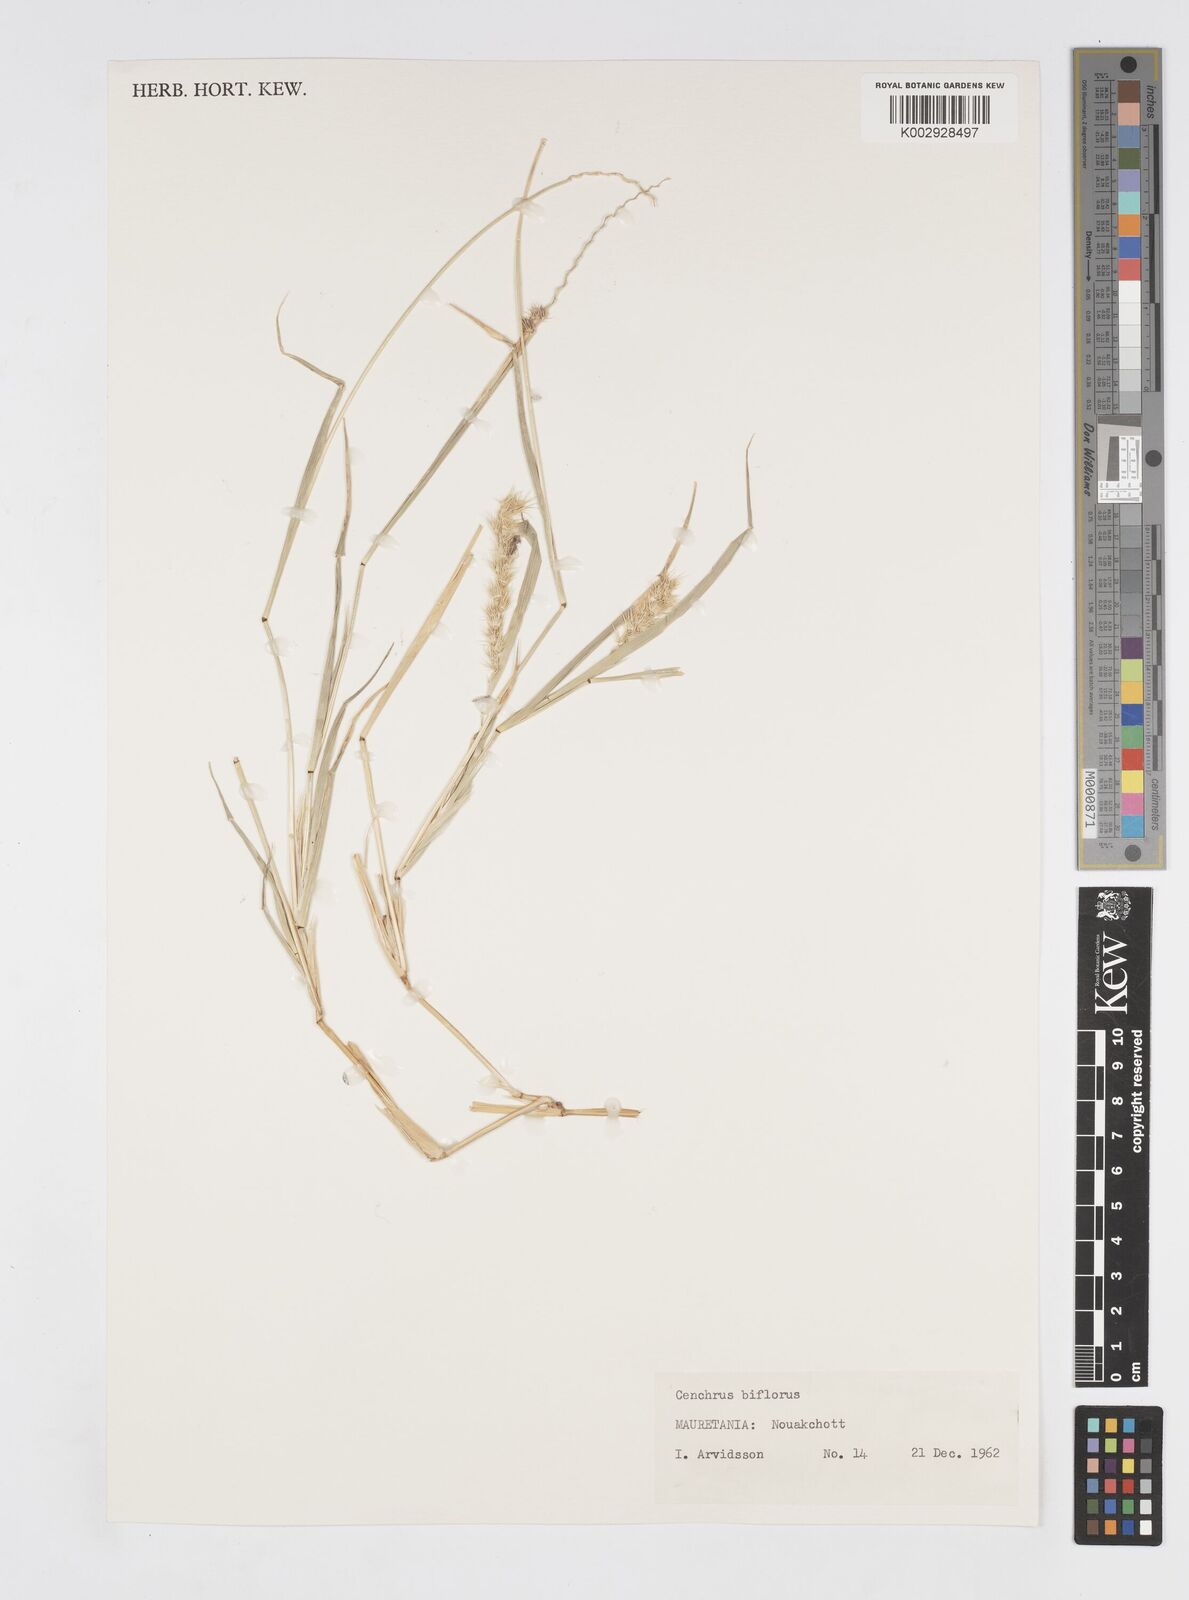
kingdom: Plantae
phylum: Tracheophyta
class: Liliopsida
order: Poales
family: Poaceae
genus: Cenchrus
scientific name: Cenchrus biflorus
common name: Indian sandbur
